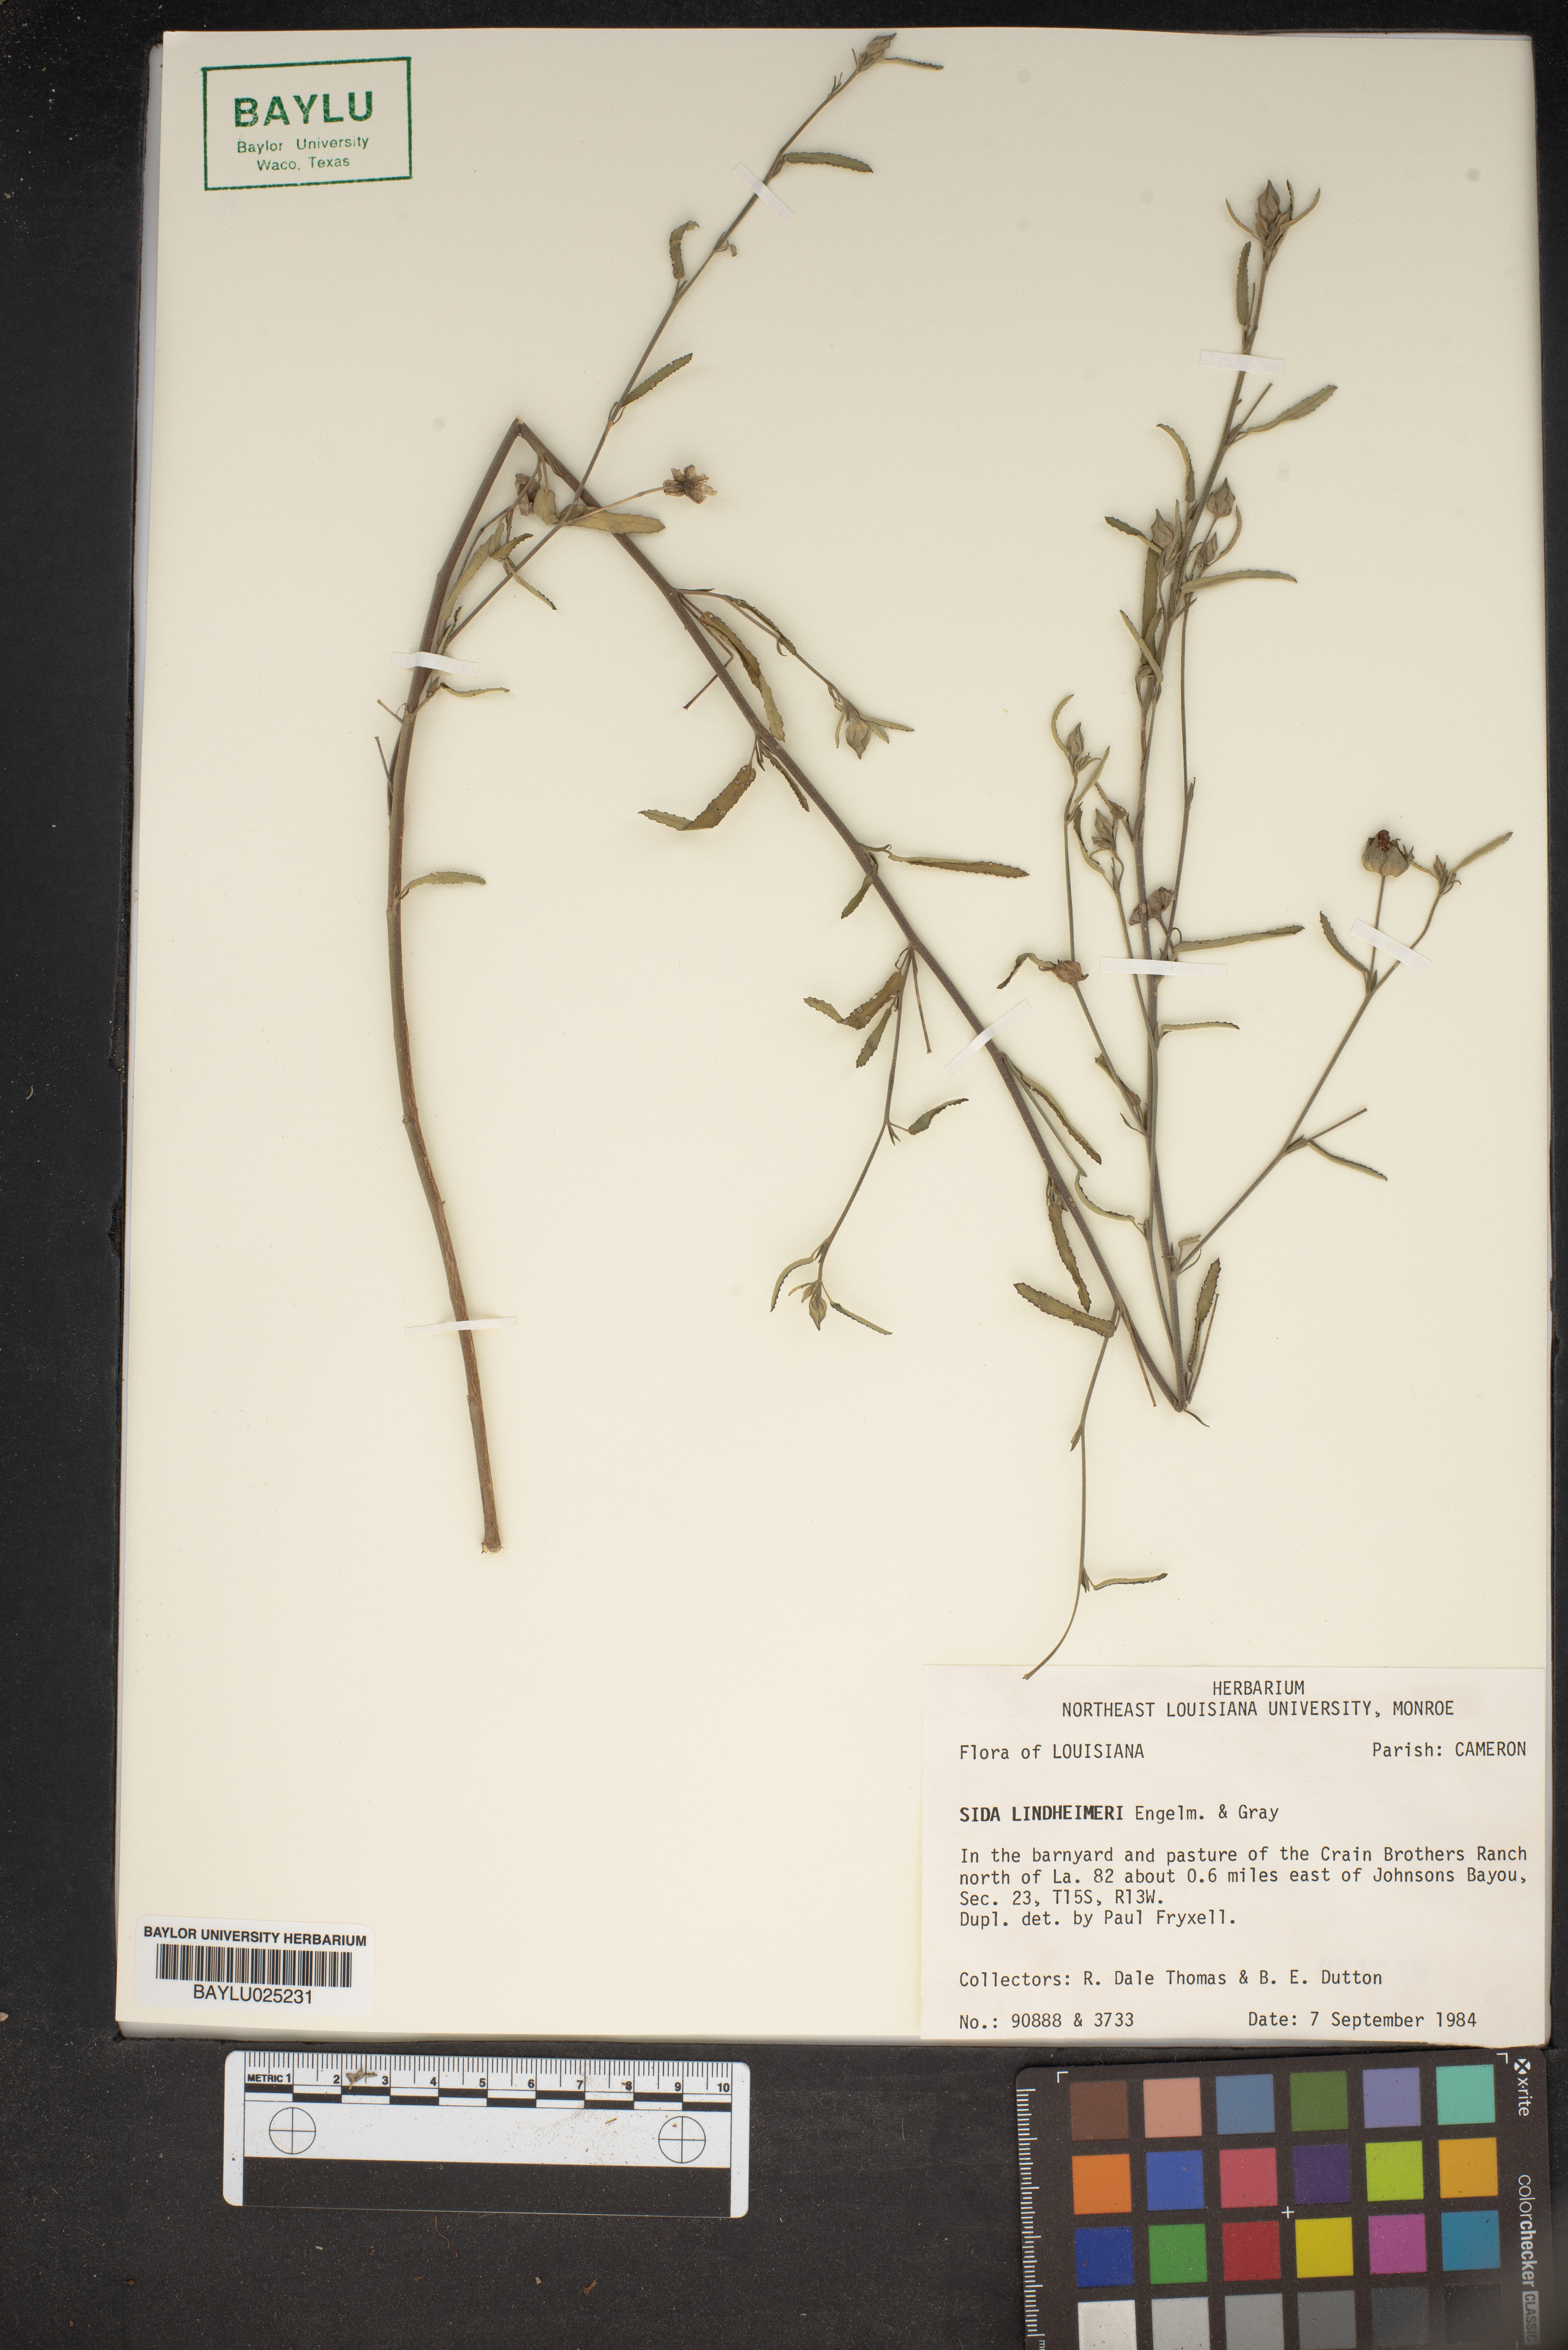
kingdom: Plantae
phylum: Tracheophyta
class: Magnoliopsida
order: Malvales
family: Malvaceae
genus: Sida
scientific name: Sida lindheimeri
